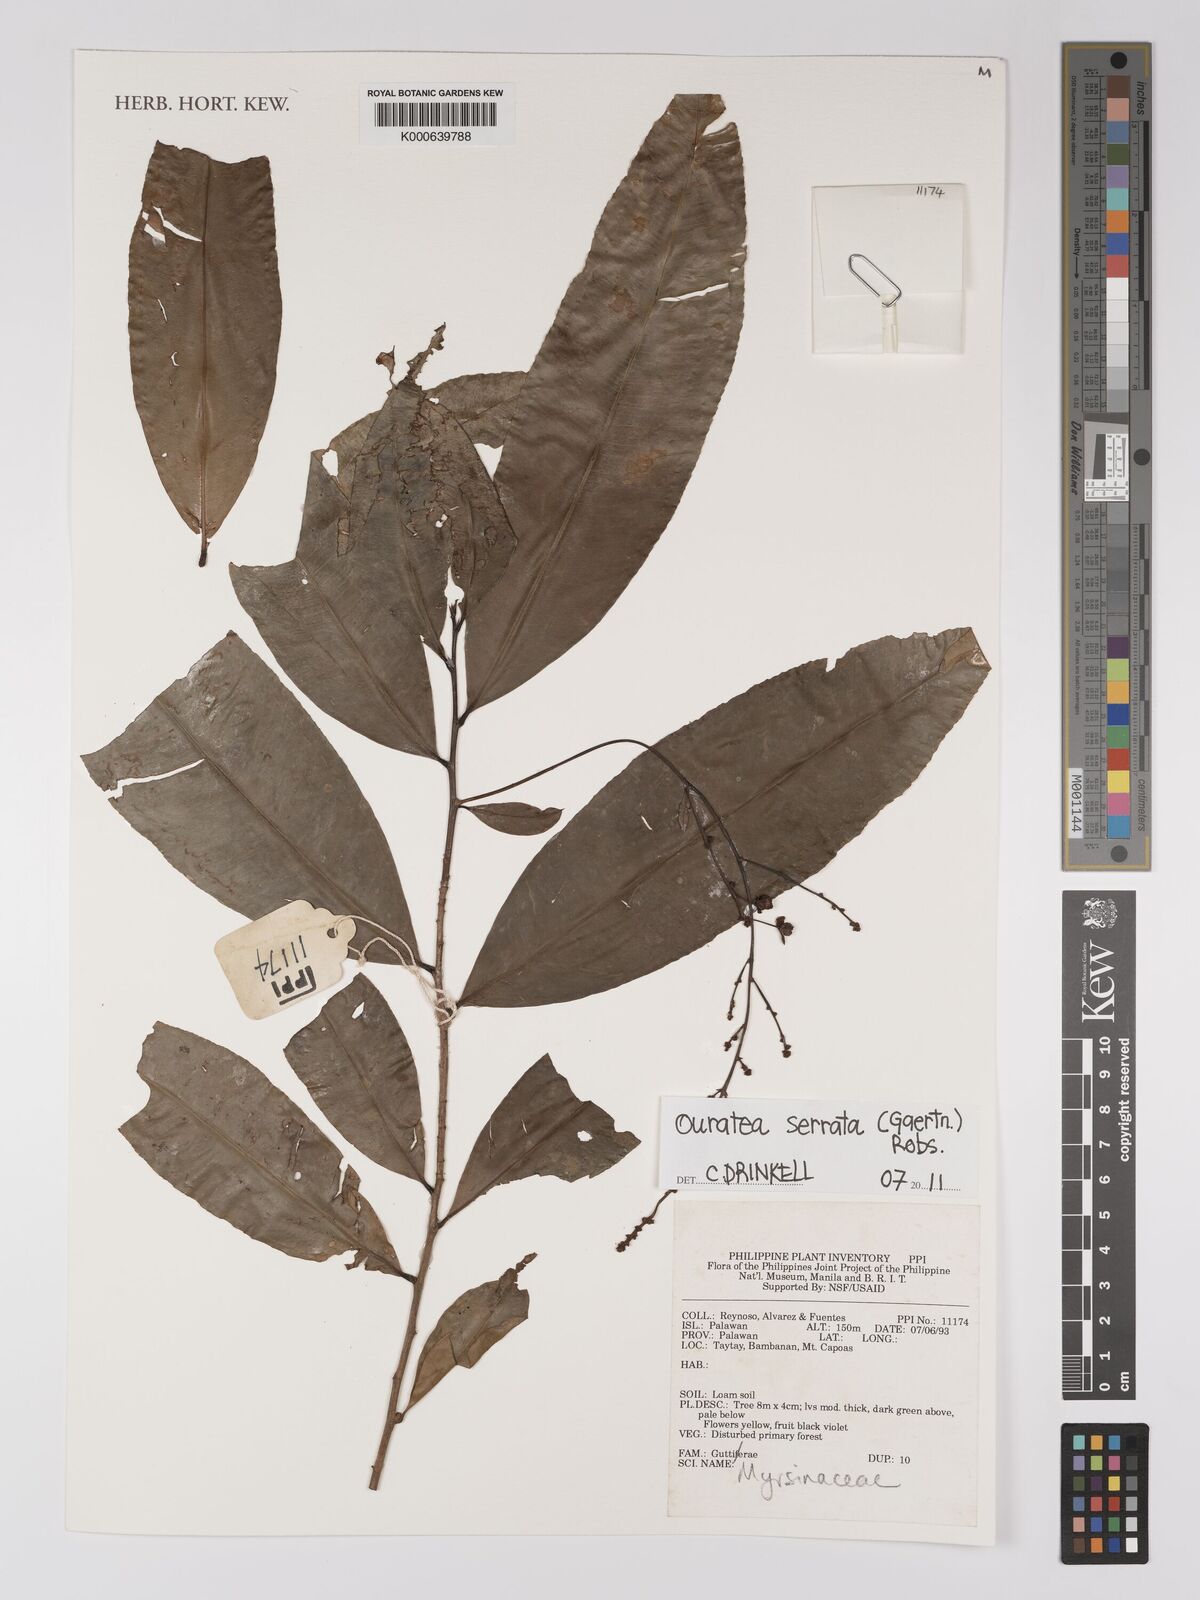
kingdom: Plantae
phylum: Tracheophyta
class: Magnoliopsida
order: Malpighiales
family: Ochnaceae
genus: Gomphia
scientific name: Gomphia serrata
